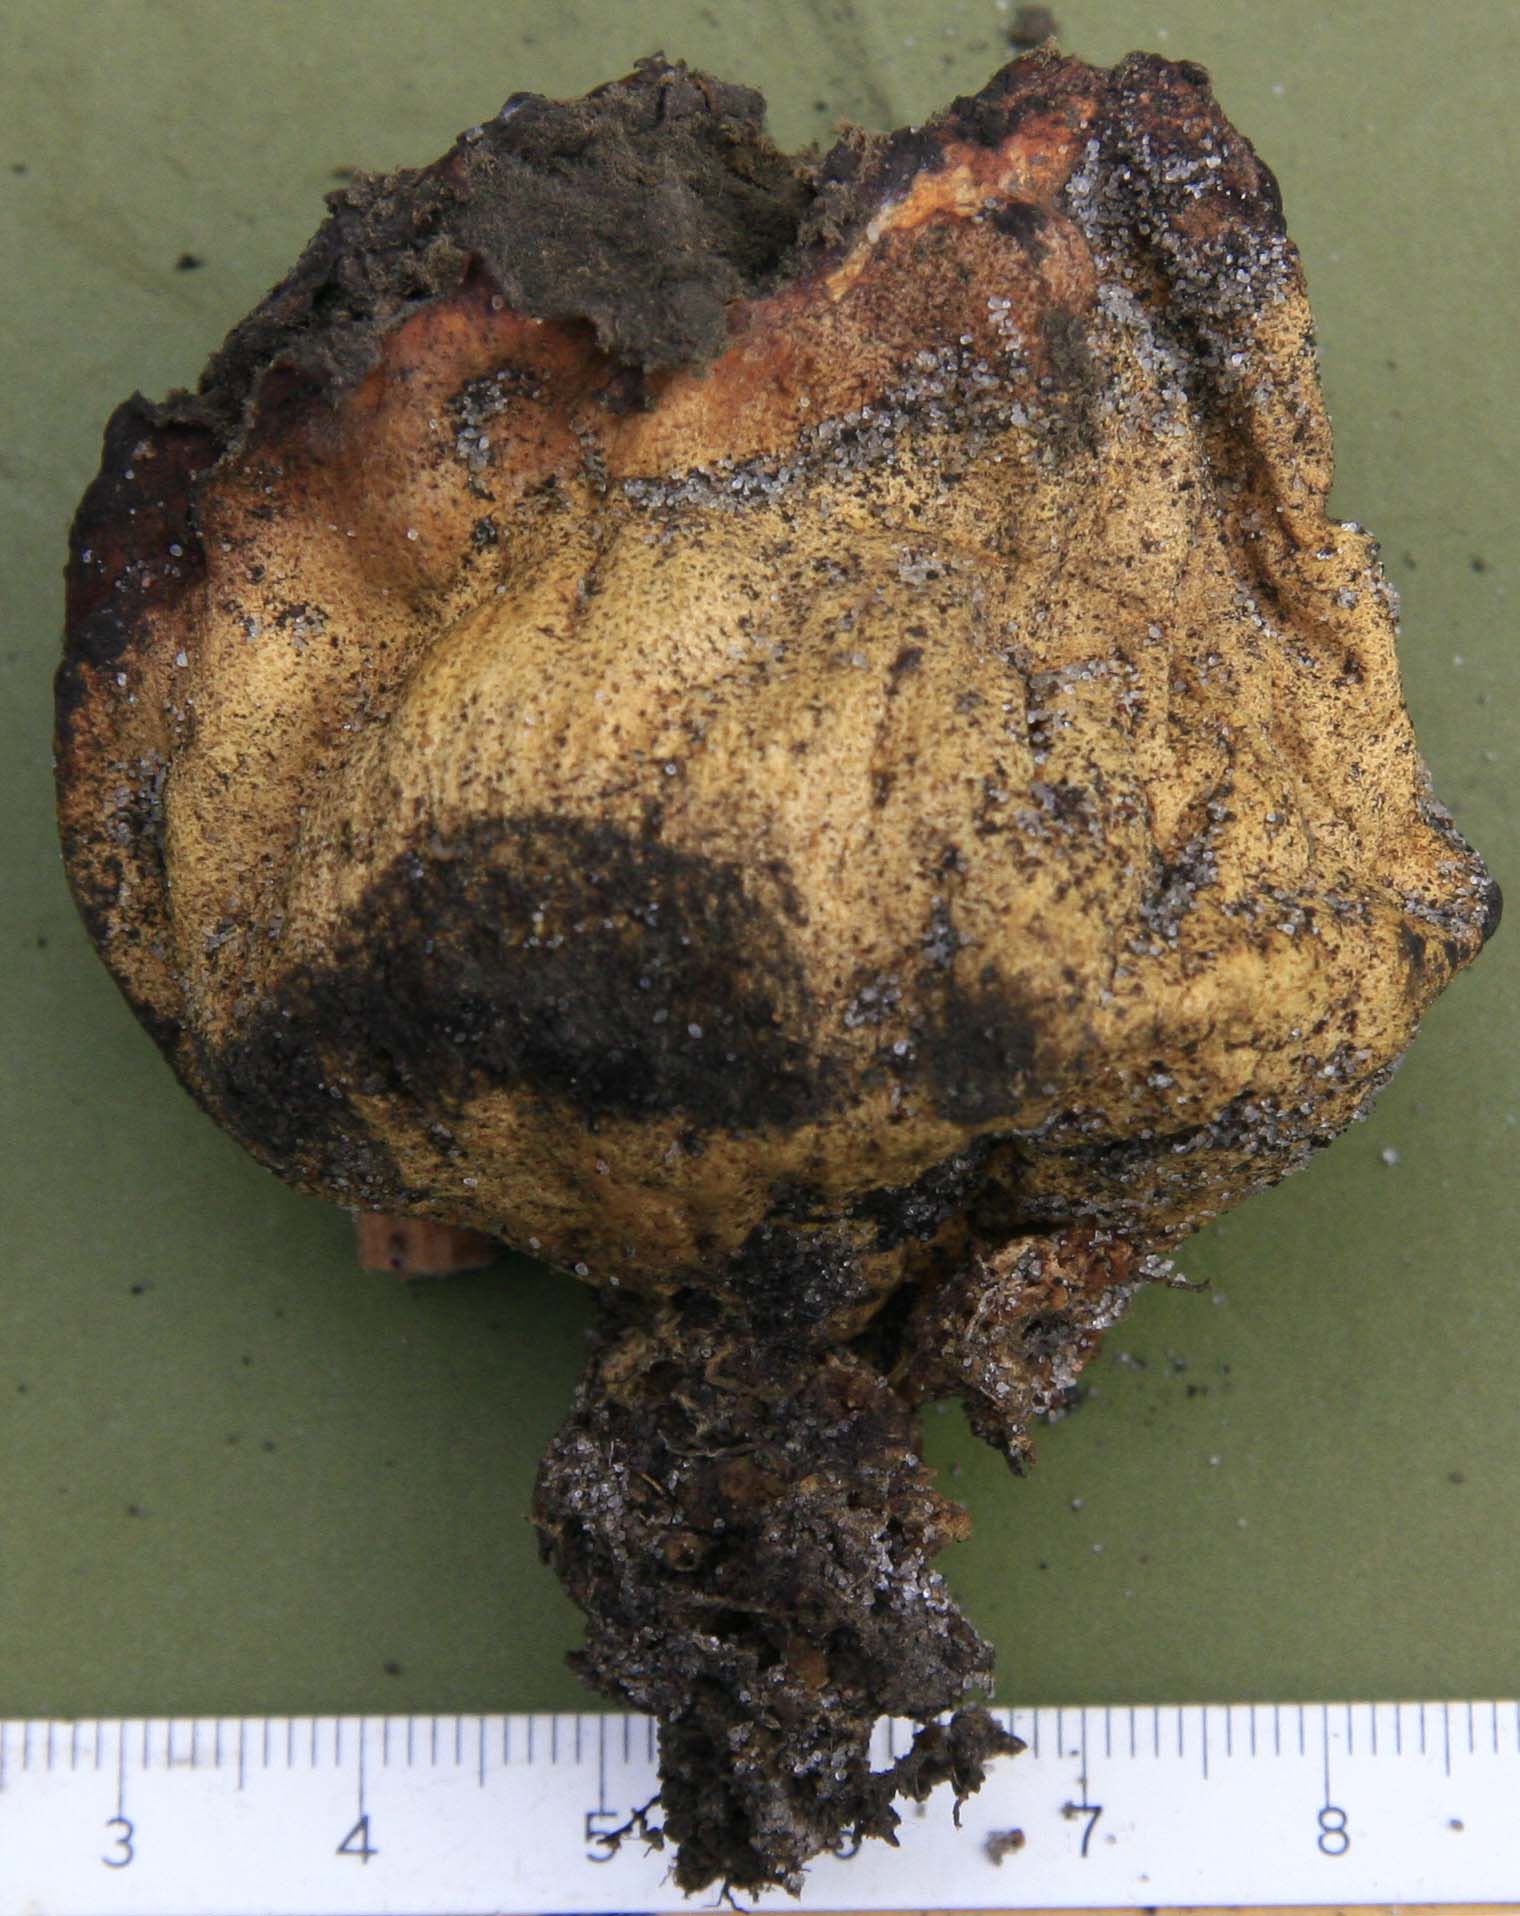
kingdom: Fungi
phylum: Basidiomycota
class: Agaricomycetes
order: Boletales
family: Sclerodermataceae
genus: Scleroderma
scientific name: Scleroderma bovista
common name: bovist-bruskbold
